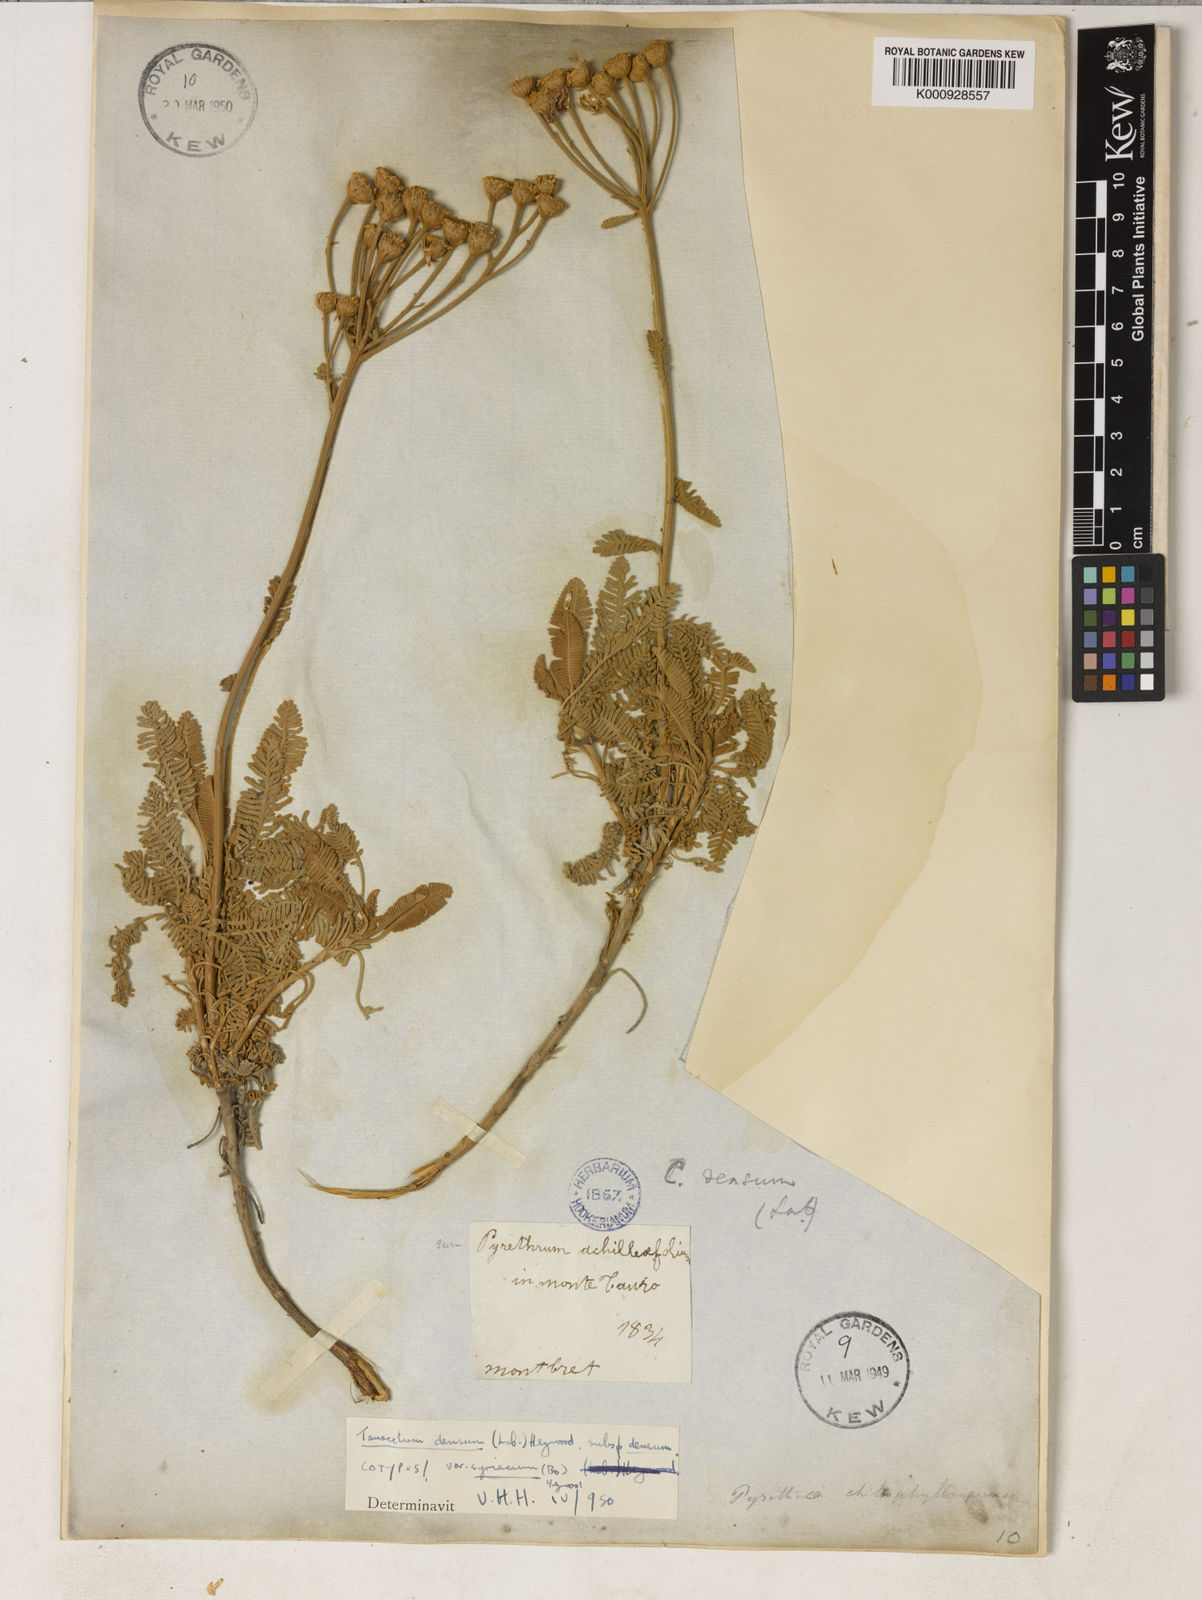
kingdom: Plantae
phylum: Tracheophyta
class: Magnoliopsida
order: Asterales
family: Asteraceae
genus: Tanacetum
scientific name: Tanacetum densum
